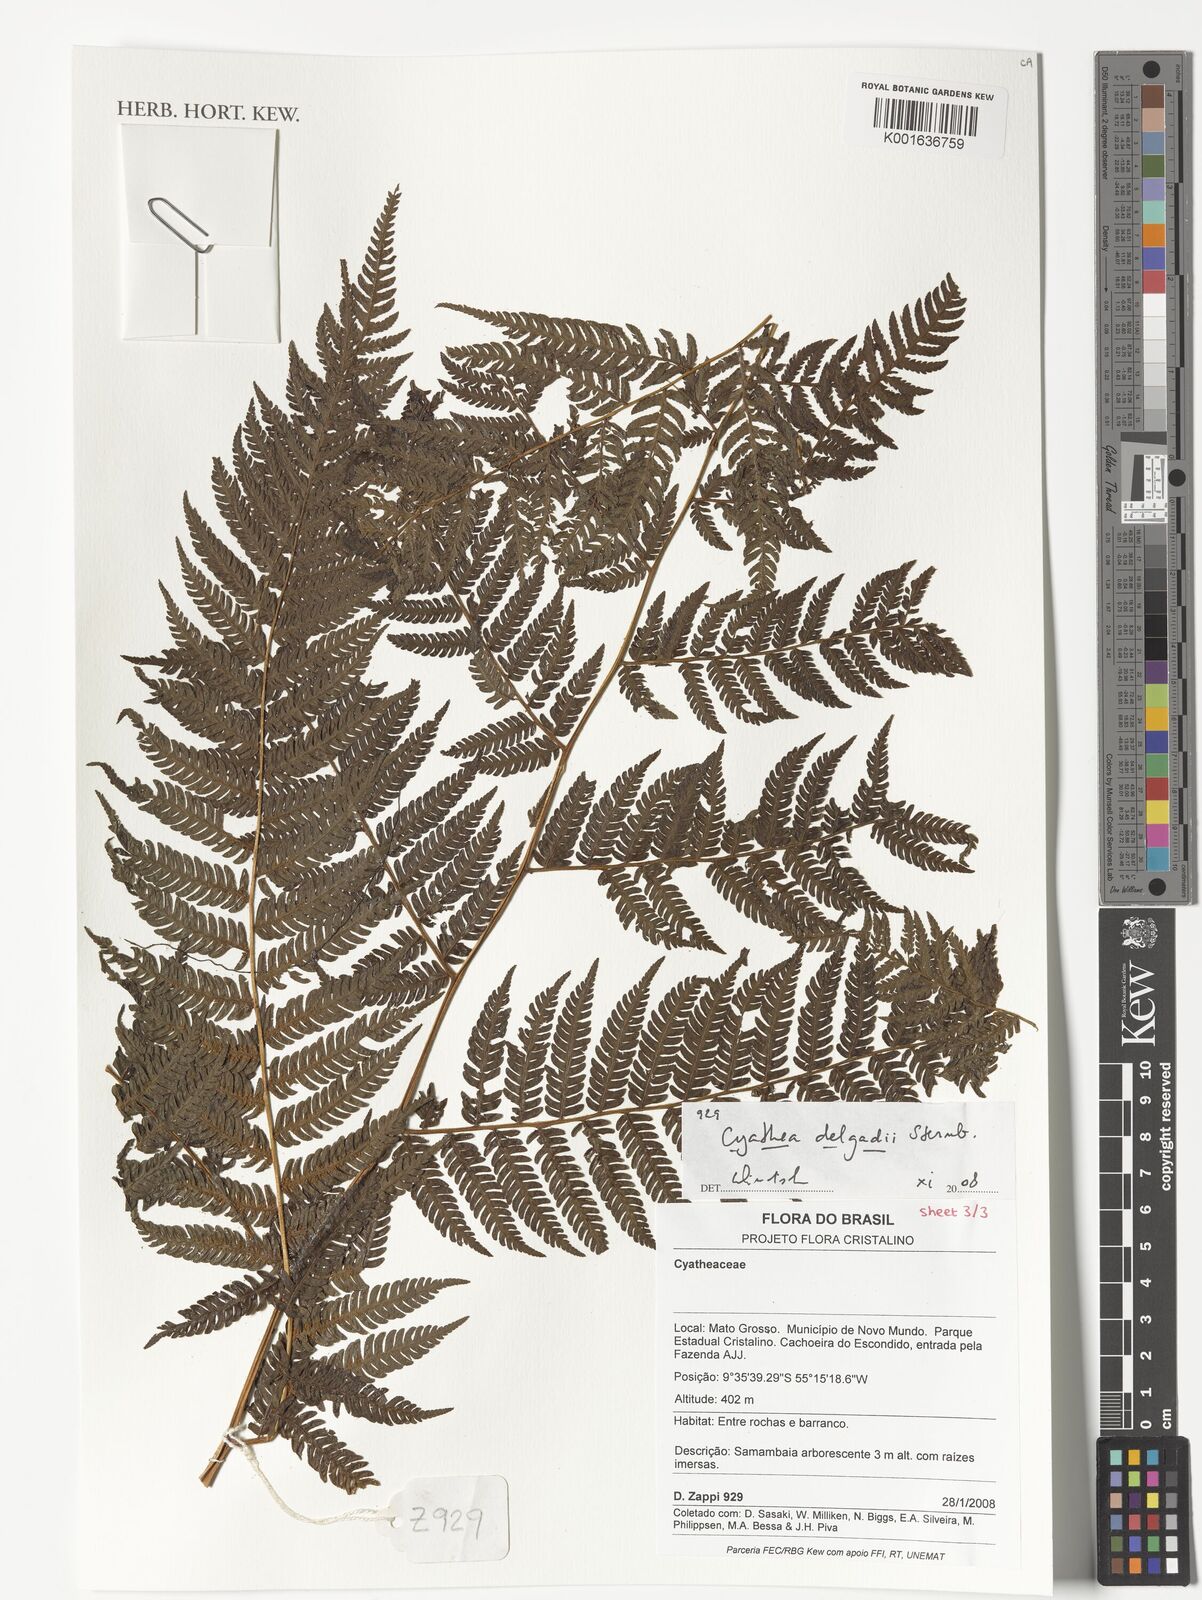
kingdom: Plantae
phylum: Tracheophyta
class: Polypodiopsida
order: Cyatheales
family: Cyatheaceae
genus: Cyathea
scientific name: Cyathea delgadii
